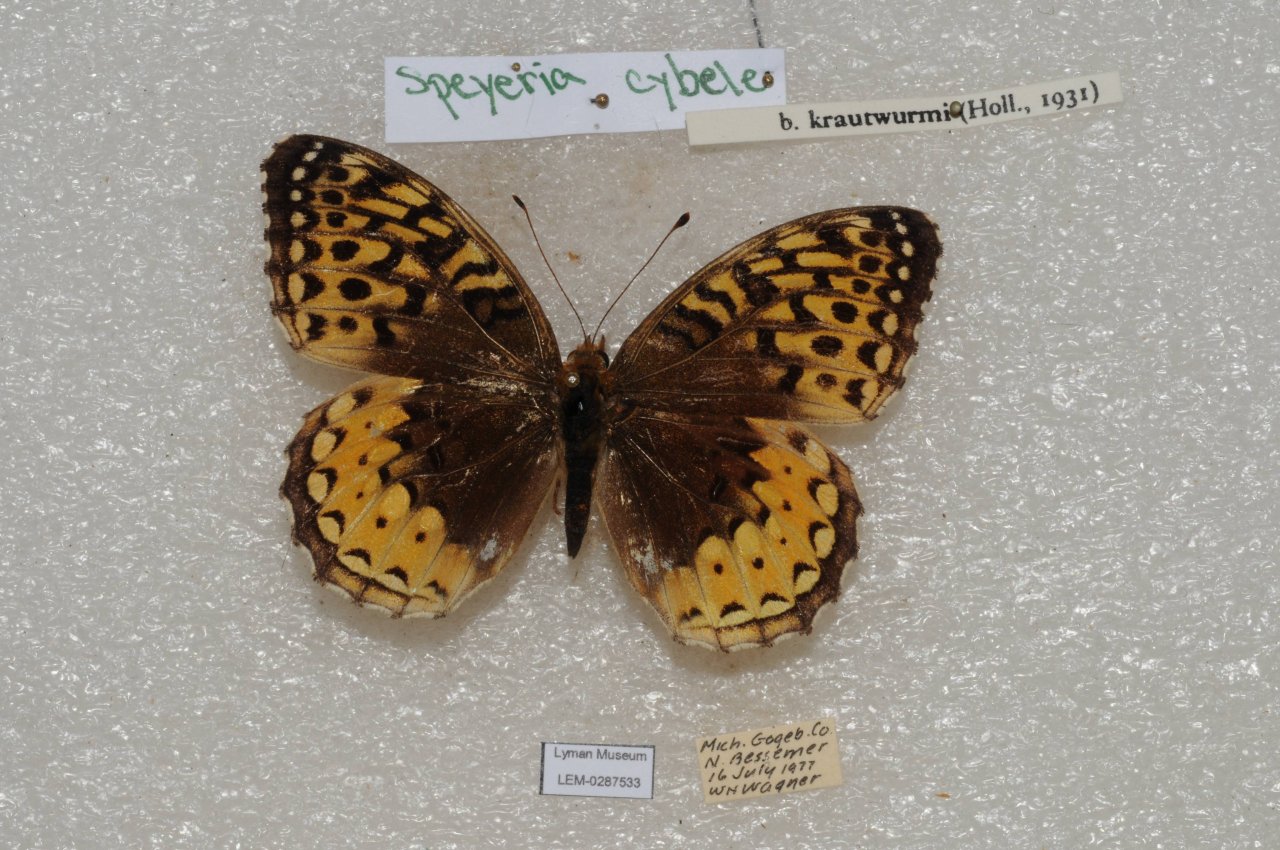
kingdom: Animalia
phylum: Arthropoda
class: Insecta
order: Lepidoptera
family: Nymphalidae
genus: Speyeria
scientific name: Speyeria cybele
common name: Great Spangled Fritillary
